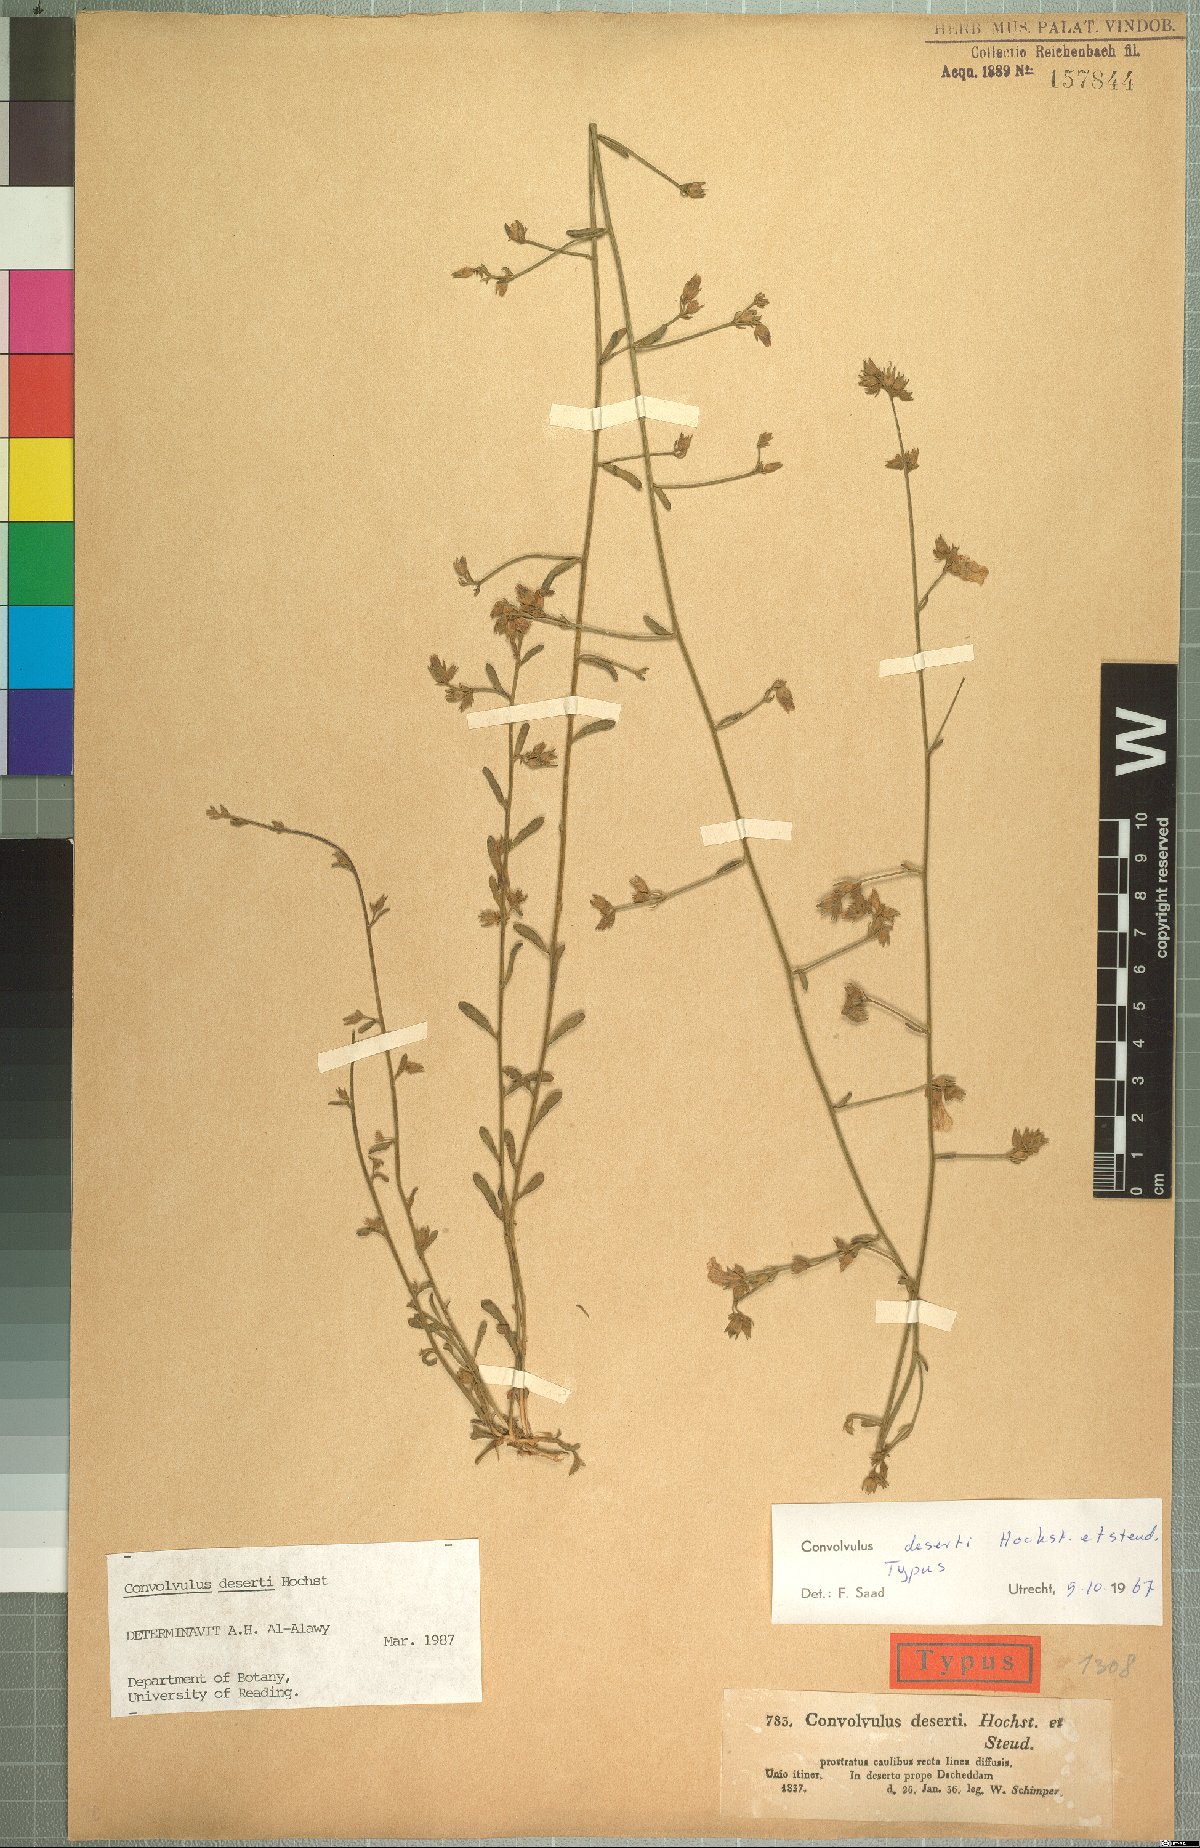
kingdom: Plantae
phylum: Tracheophyta
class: Magnoliopsida
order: Solanales
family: Convolvulaceae
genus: Convolvulus
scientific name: Convolvulus prostratus
